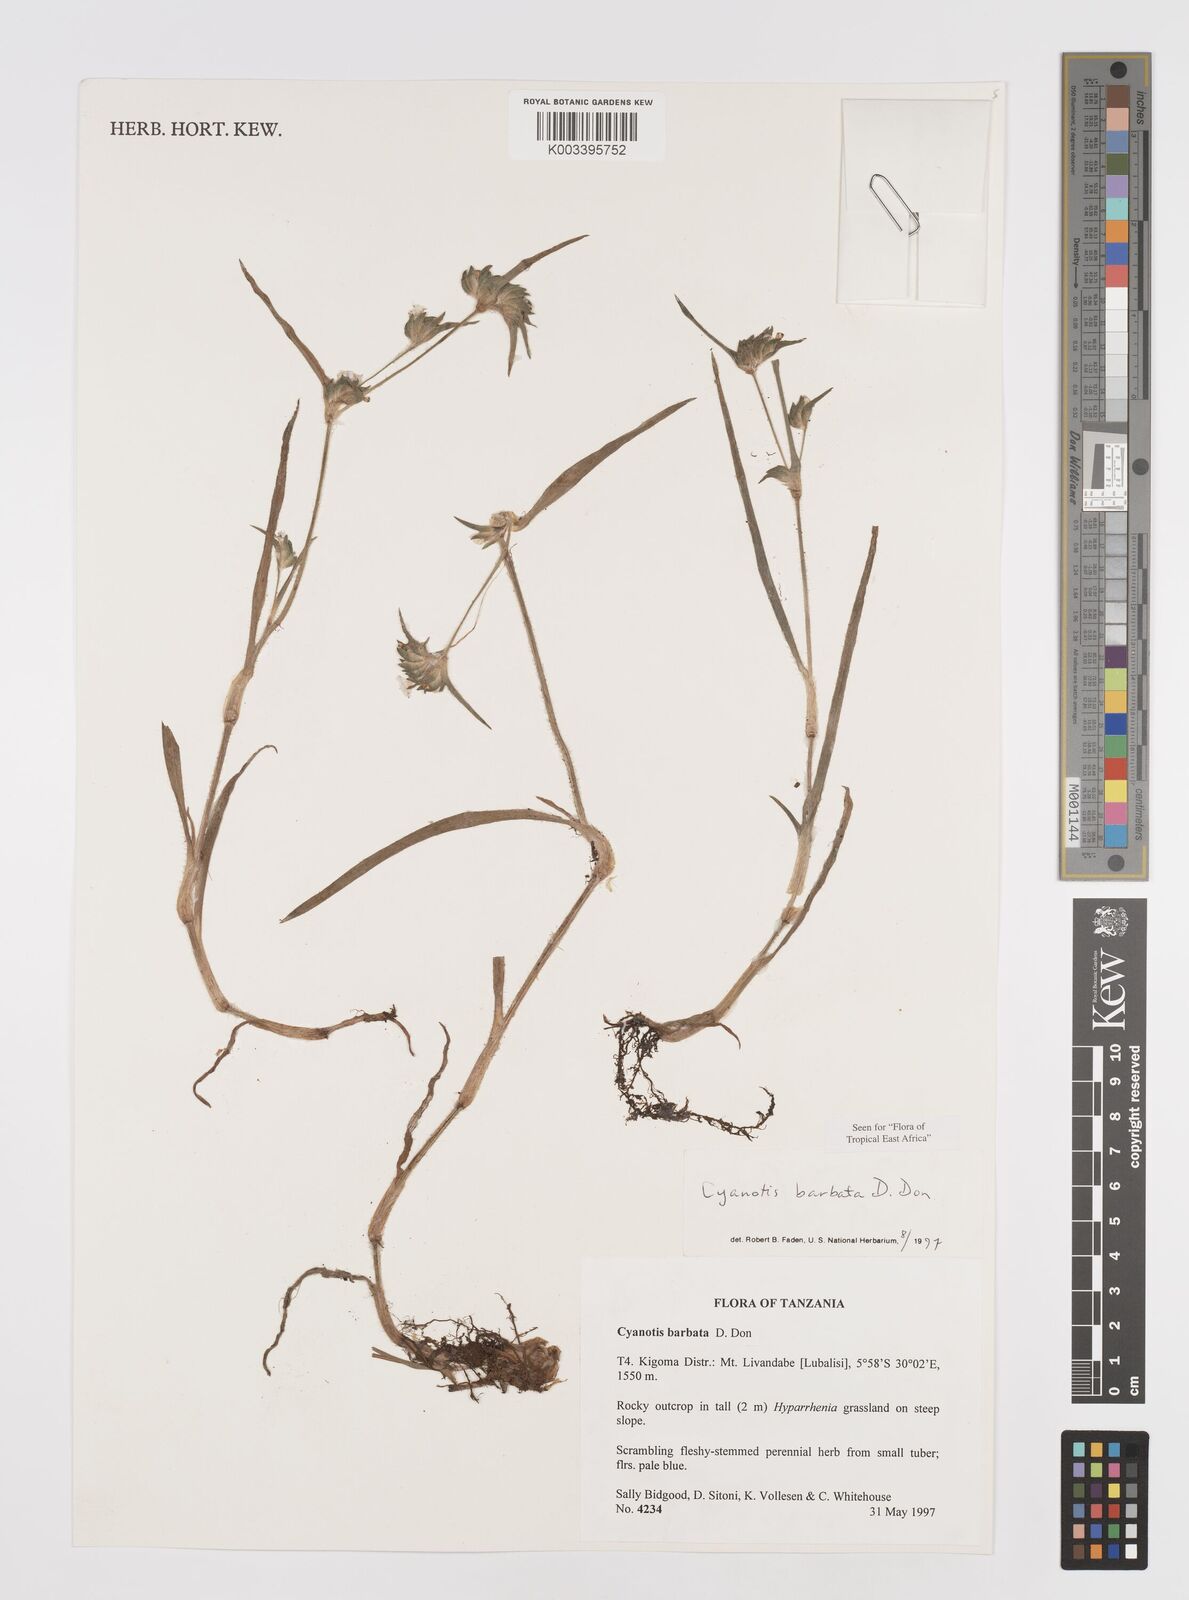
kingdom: Plantae
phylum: Tracheophyta
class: Liliopsida
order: Commelinales
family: Commelinaceae
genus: Cyanotis
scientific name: Cyanotis vaga
